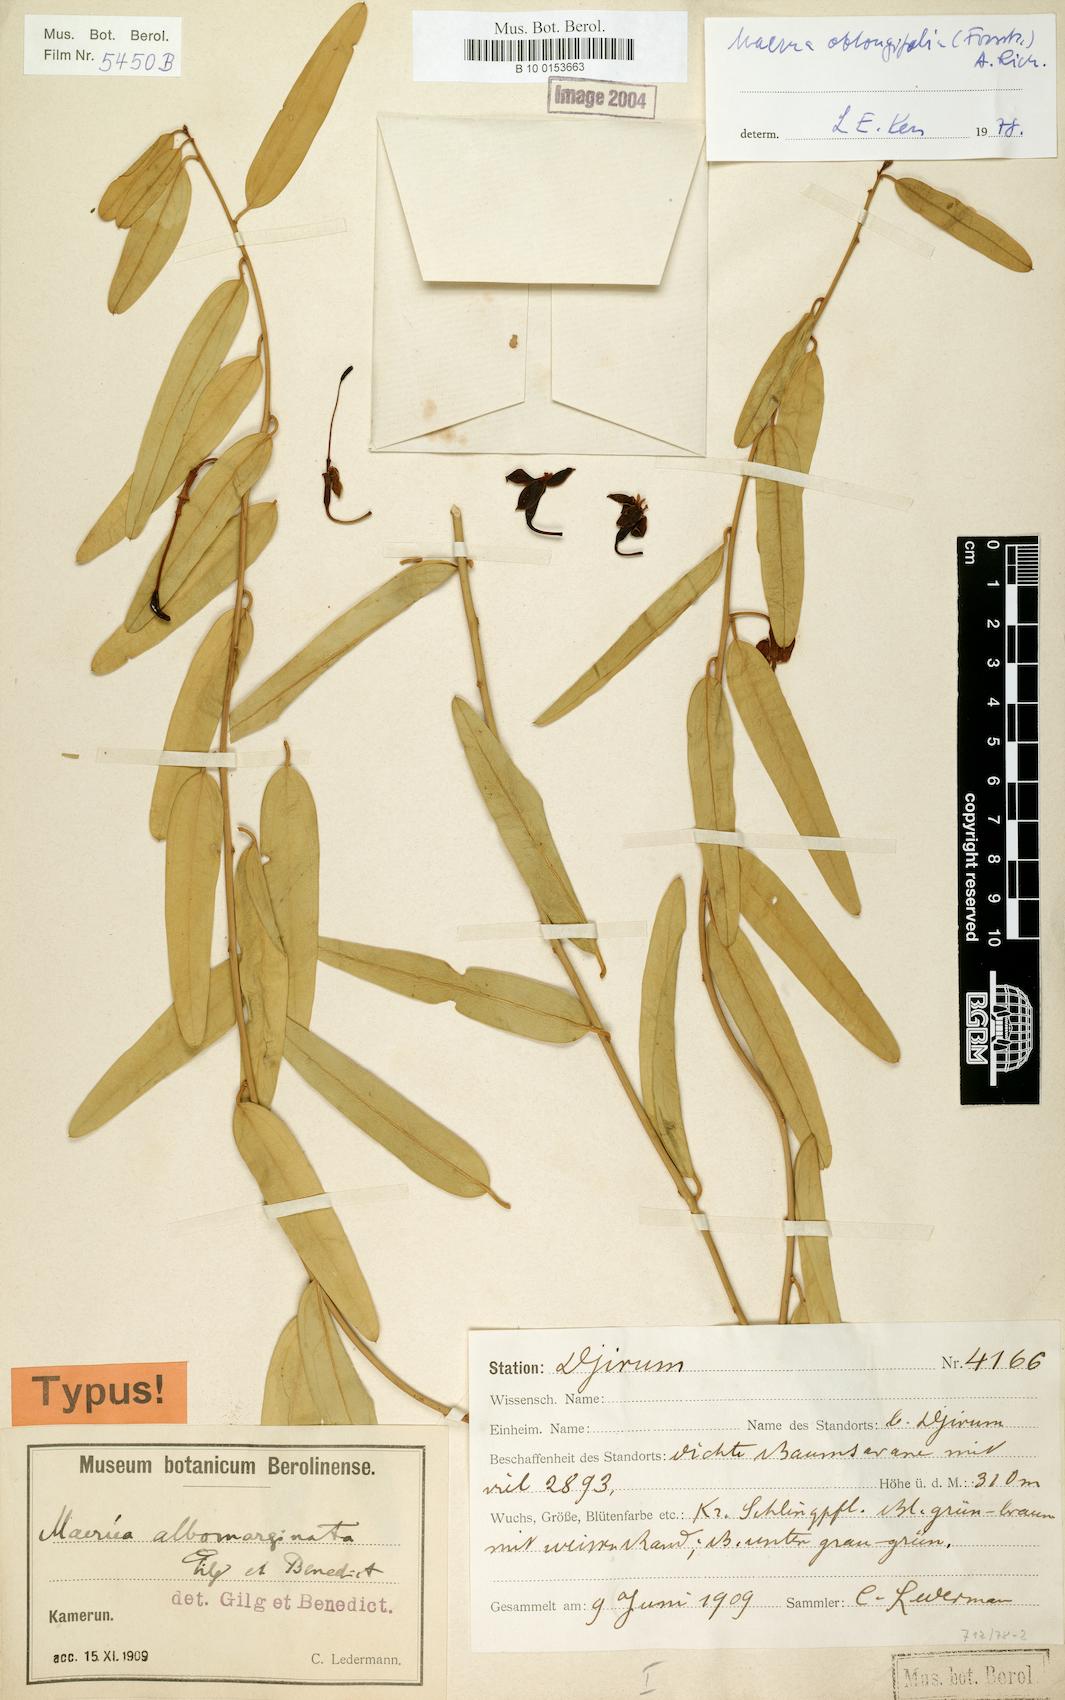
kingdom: Plantae
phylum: Tracheophyta
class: Magnoliopsida
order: Brassicales
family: Capparaceae
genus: Maerua
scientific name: Maerua oblongifolia
